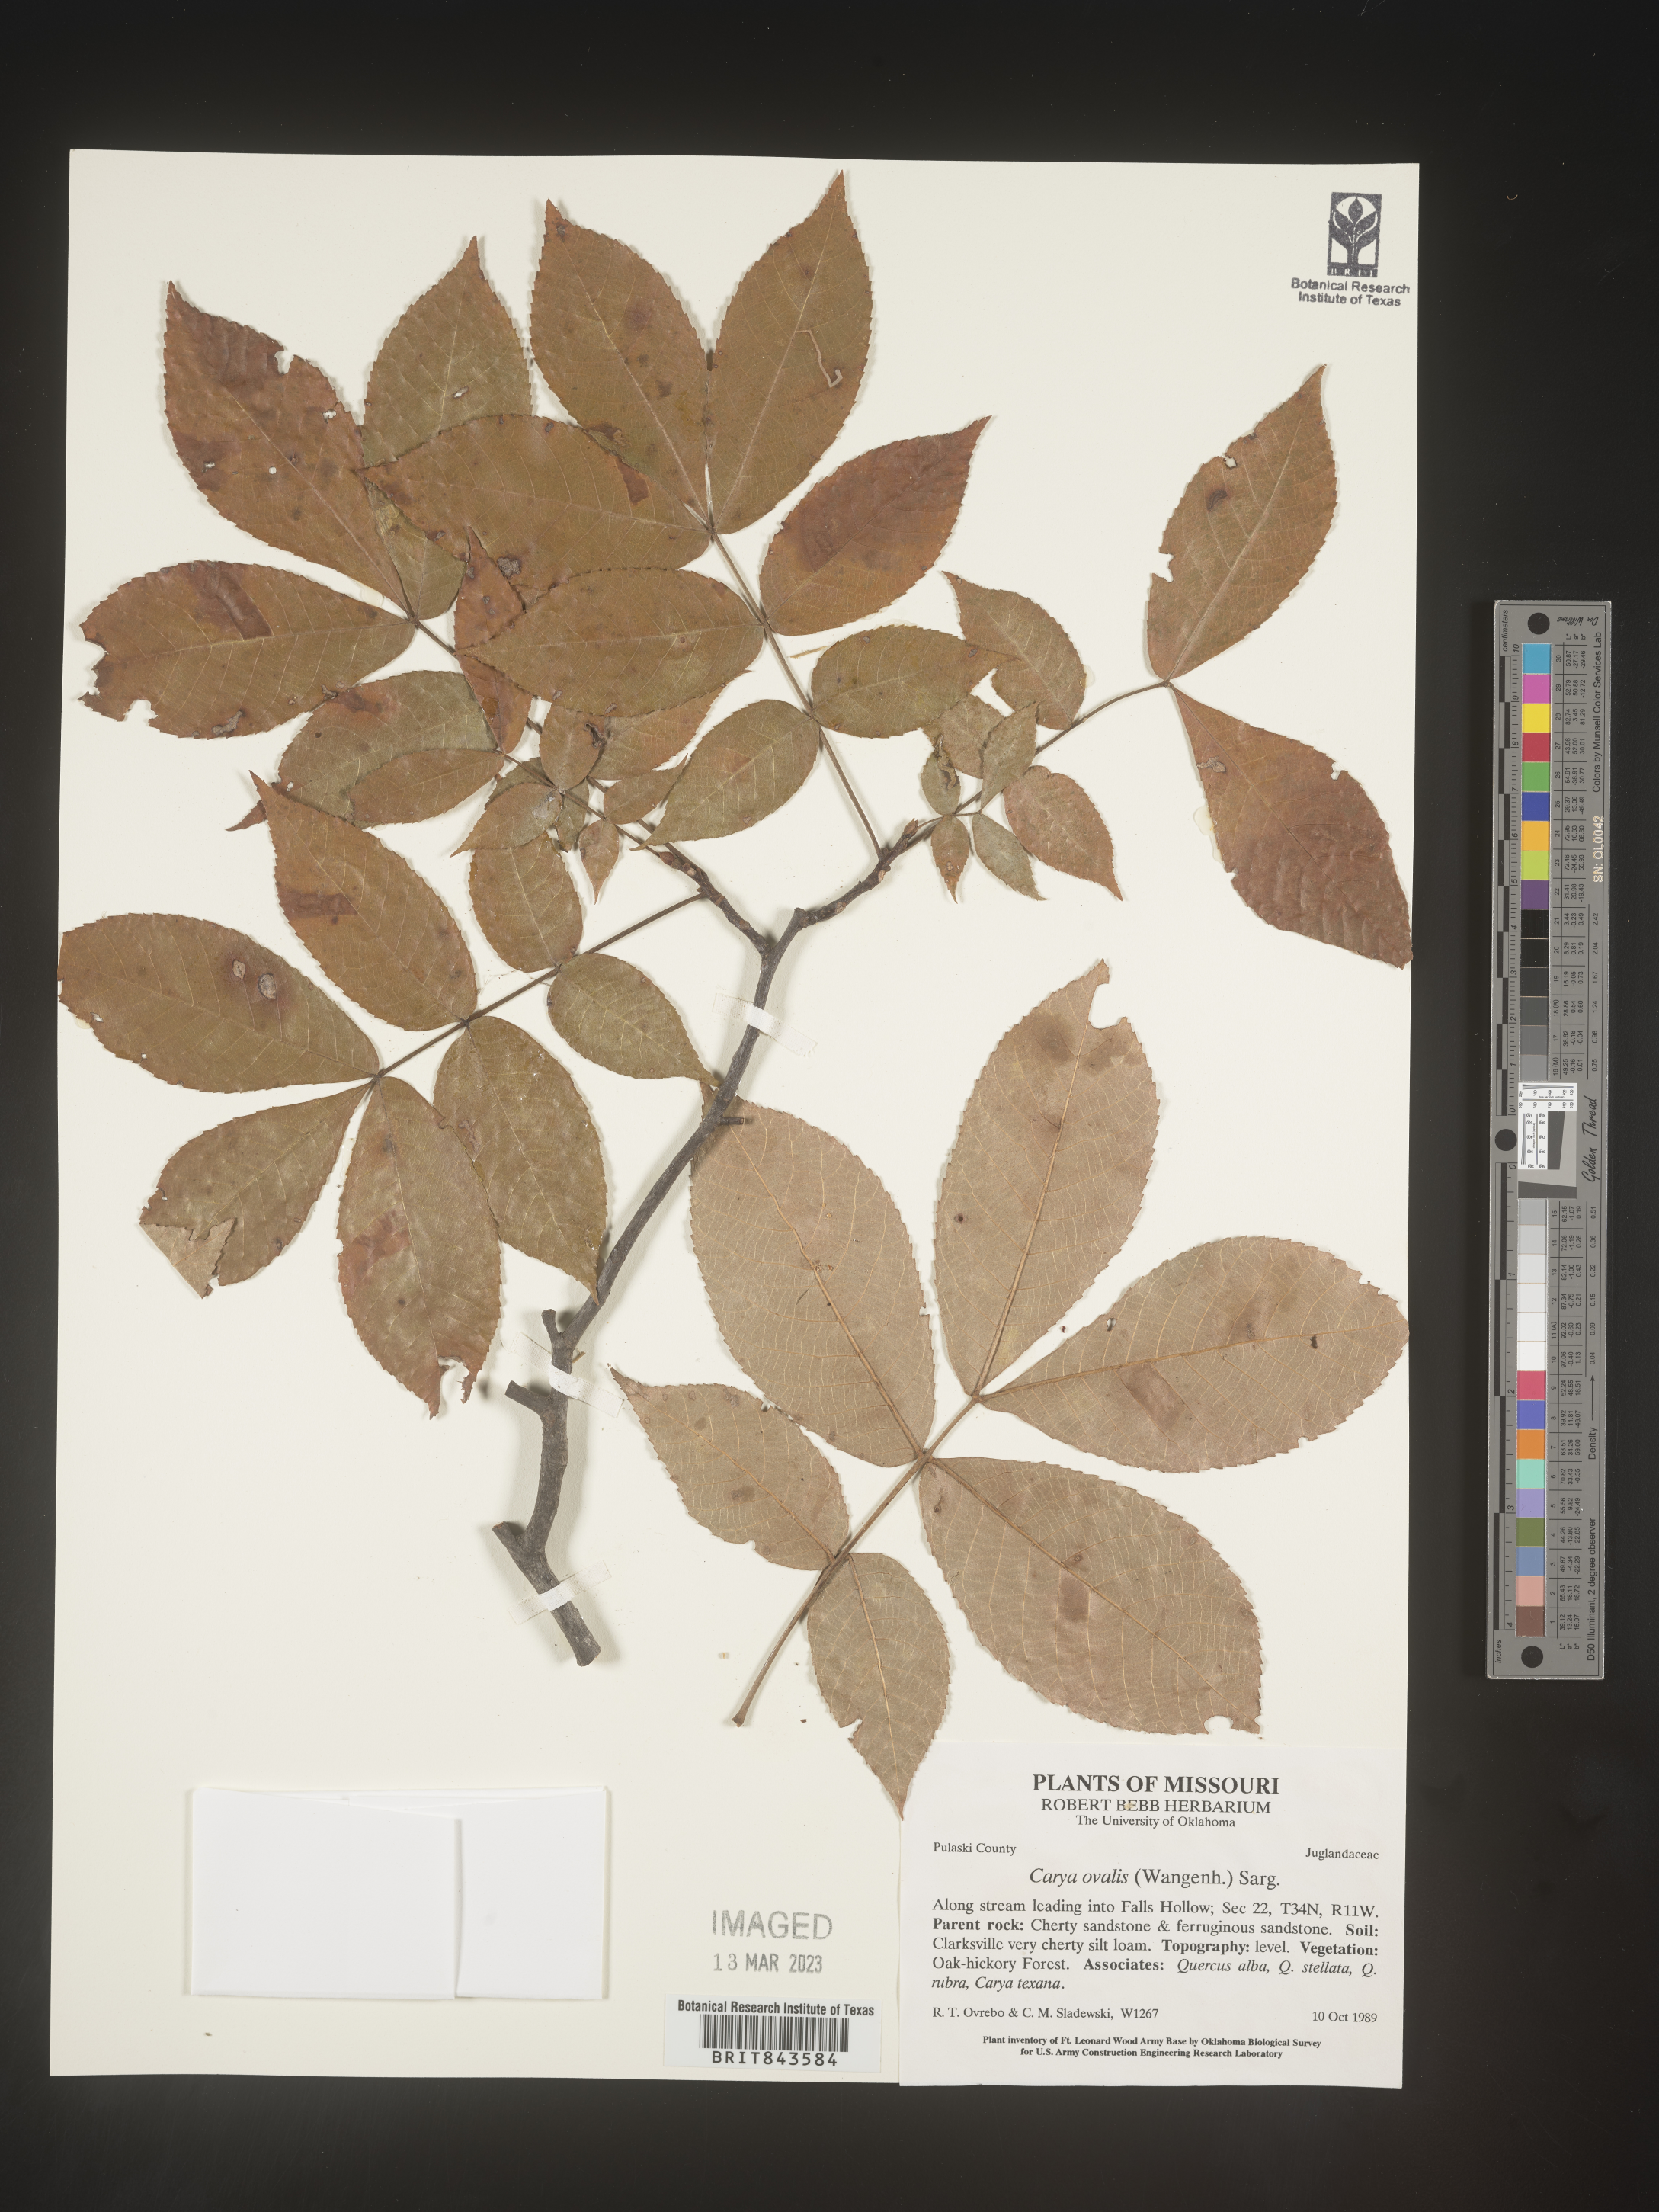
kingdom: Plantae
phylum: Tracheophyta
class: Magnoliopsida
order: Fagales
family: Juglandaceae
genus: Carya
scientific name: Carya ovalis
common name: False shagbark
